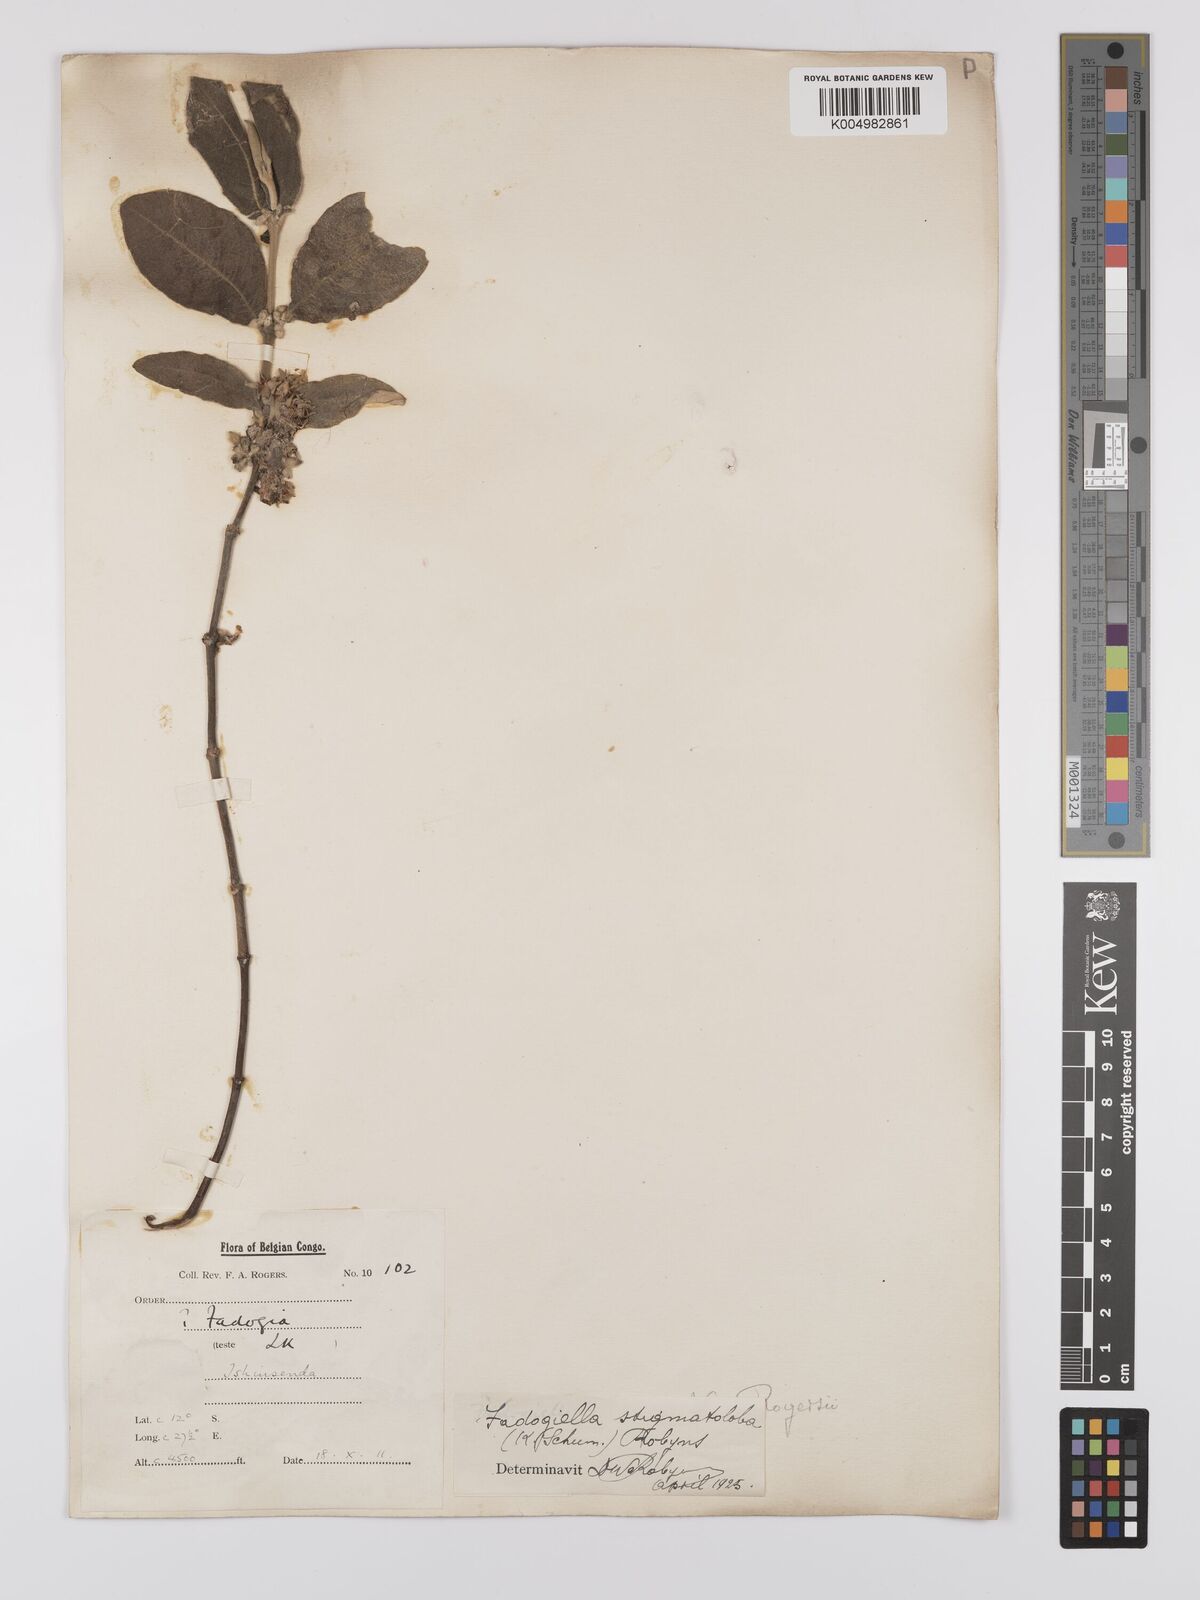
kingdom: Plantae
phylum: Tracheophyta
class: Magnoliopsida
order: Gentianales
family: Rubiaceae
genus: Fadogiella
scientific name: Fadogiella stigmatoloba
